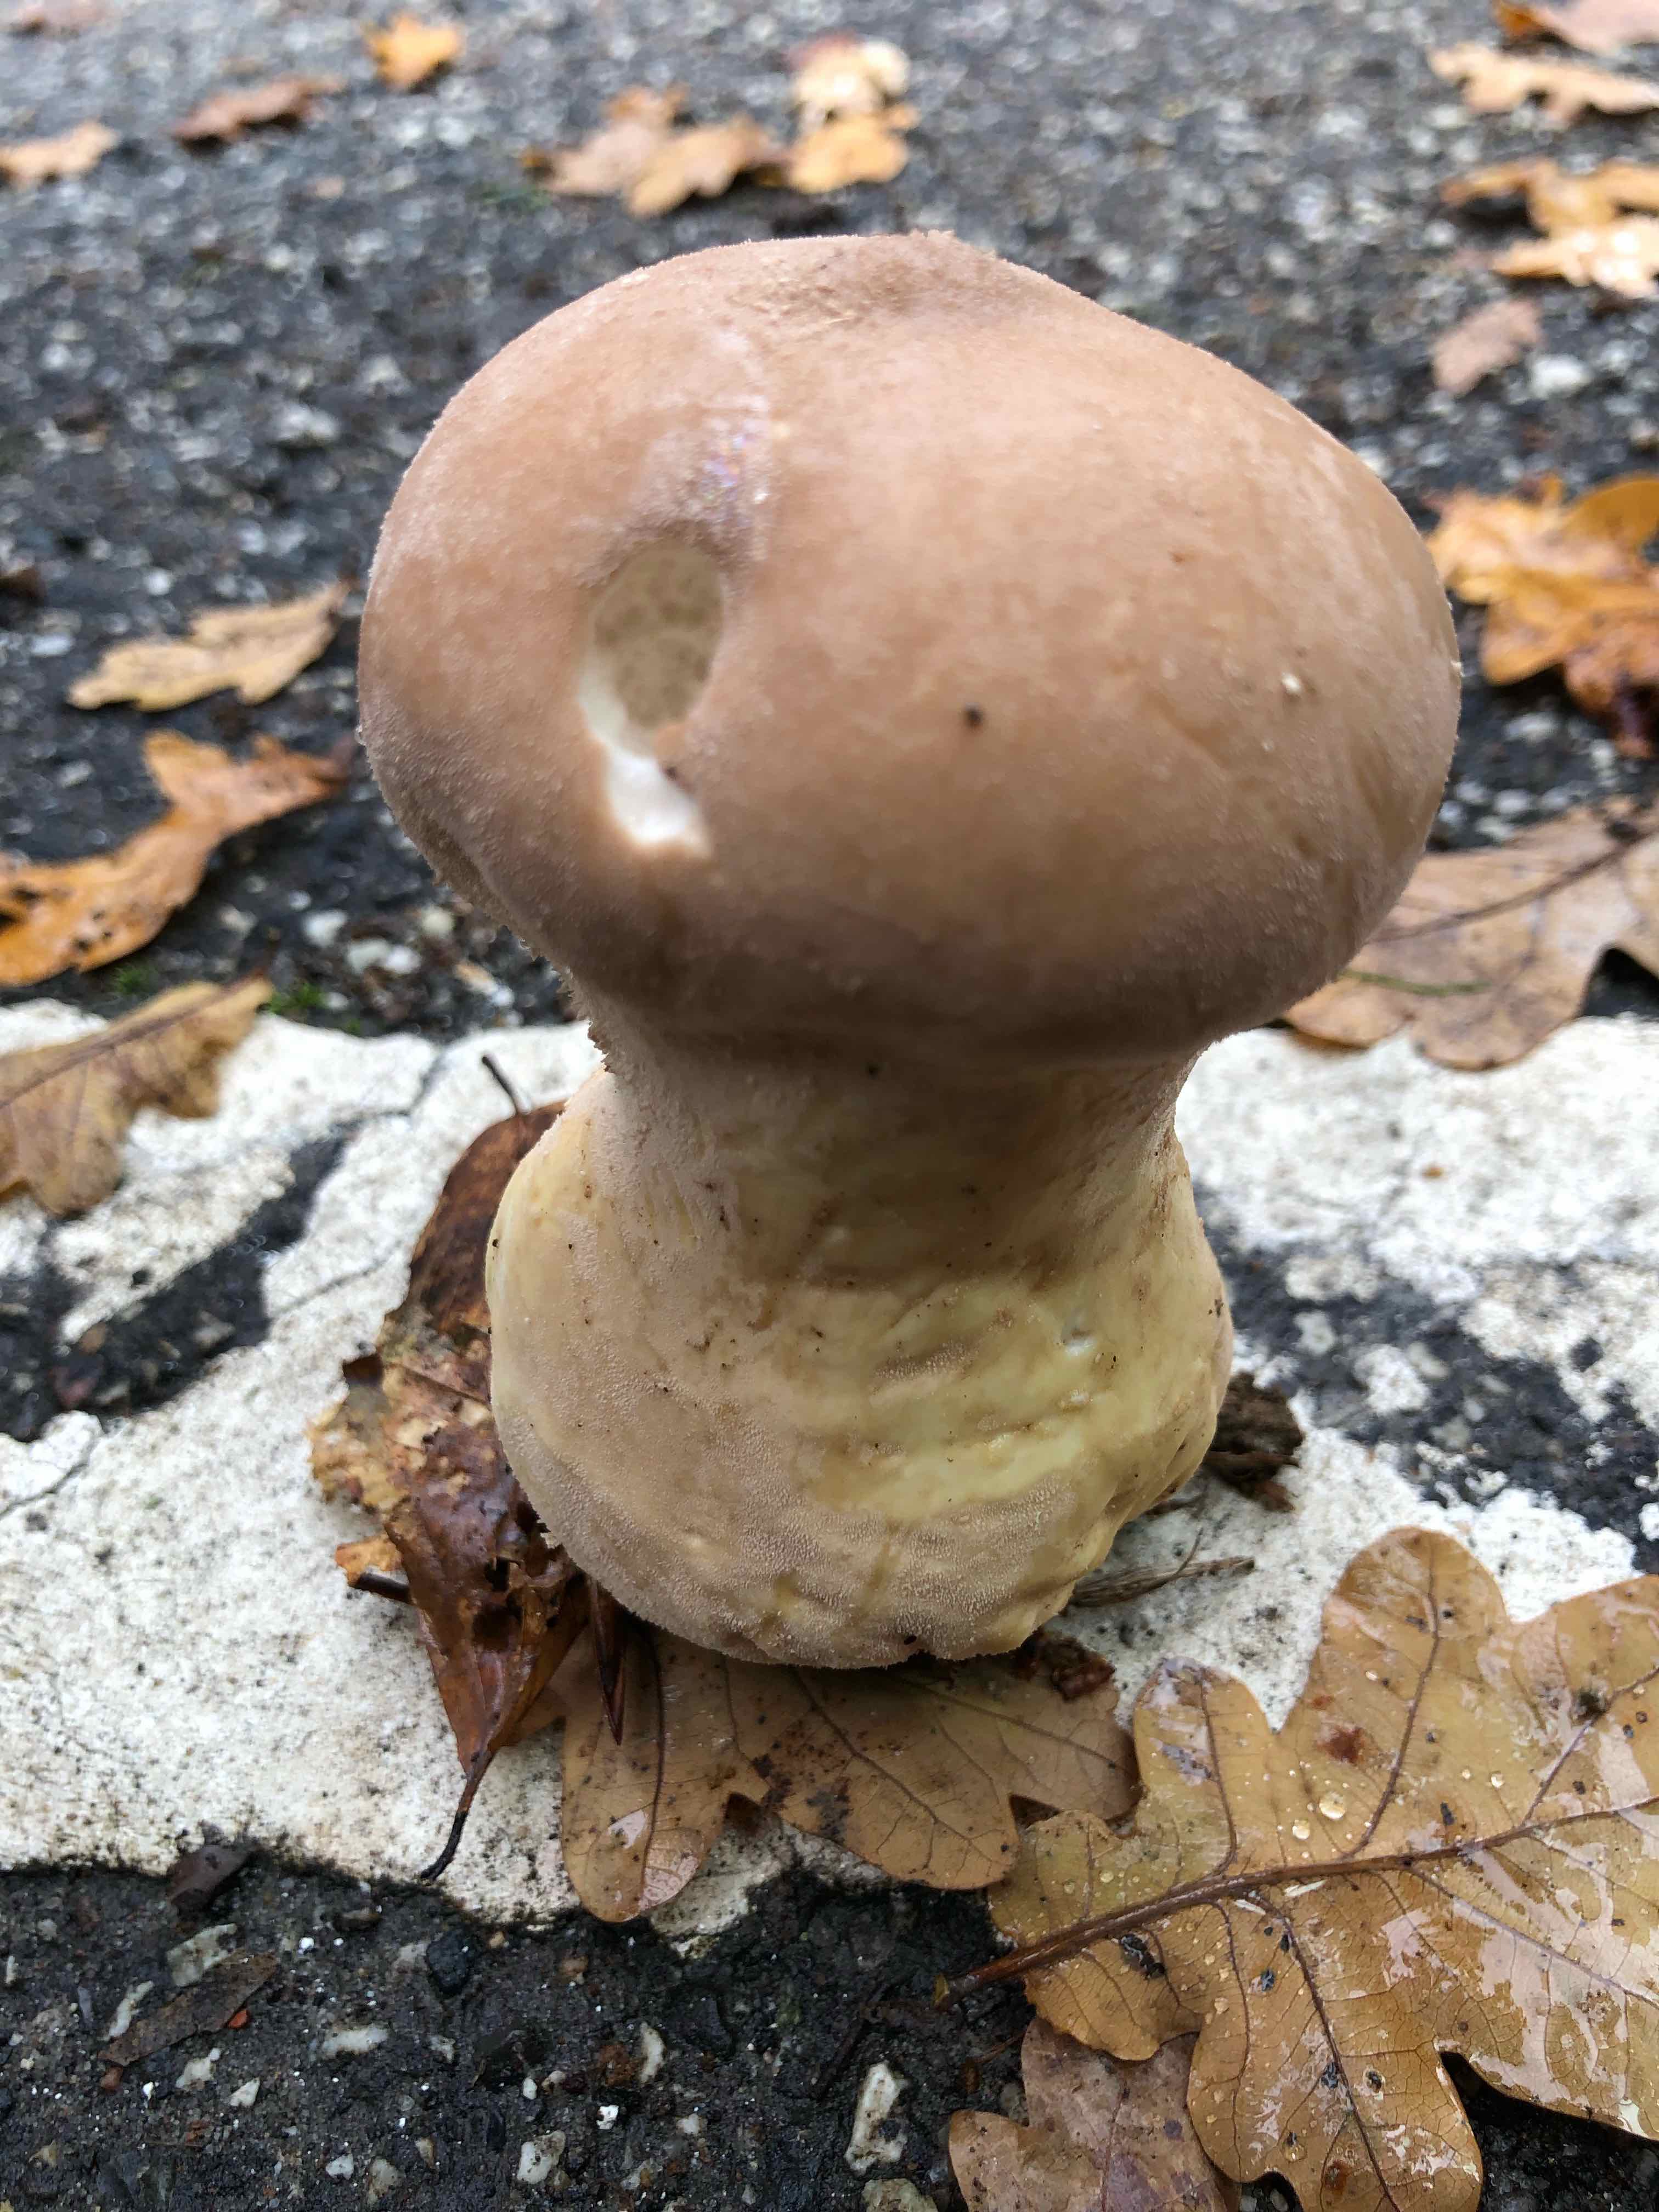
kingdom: Fungi
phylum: Basidiomycota
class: Agaricomycetes
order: Agaricales
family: Lycoperdaceae
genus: Lycoperdon
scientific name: Lycoperdon excipuliforme
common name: højstokket støvbold
